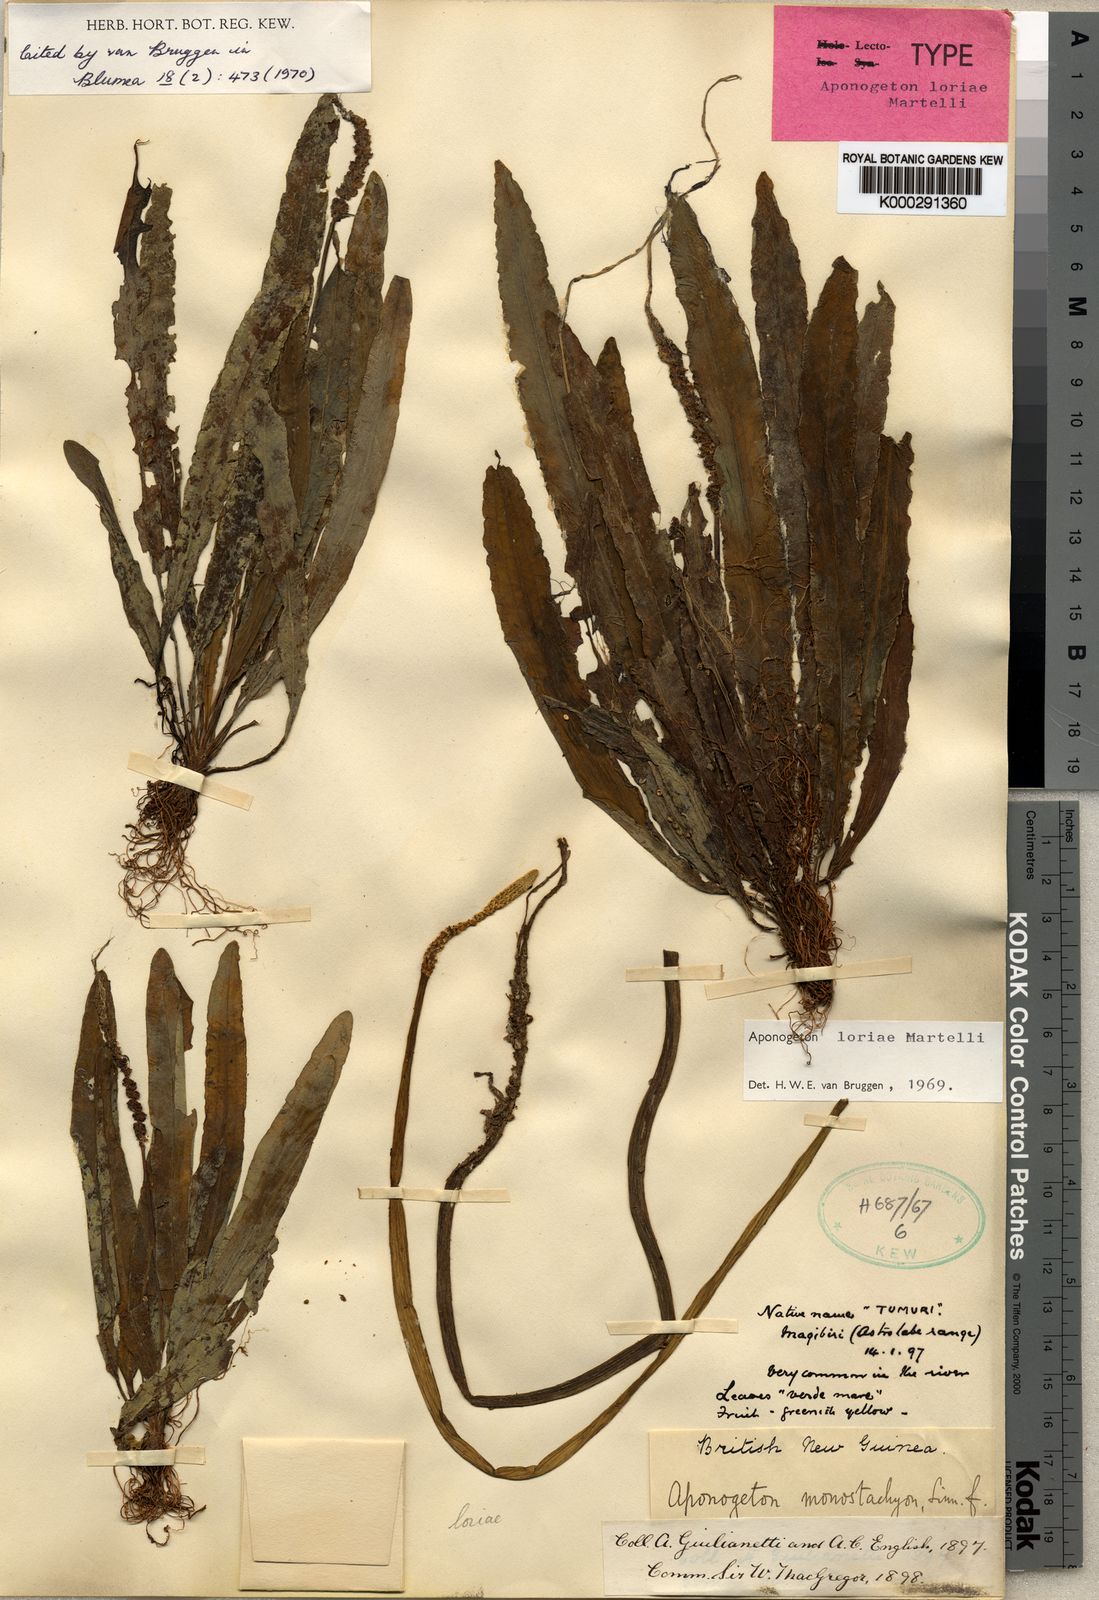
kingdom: Plantae
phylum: Tracheophyta
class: Liliopsida
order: Alismatales
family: Aponogetonaceae
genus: Aponogeton
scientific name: Aponogeton loriae
